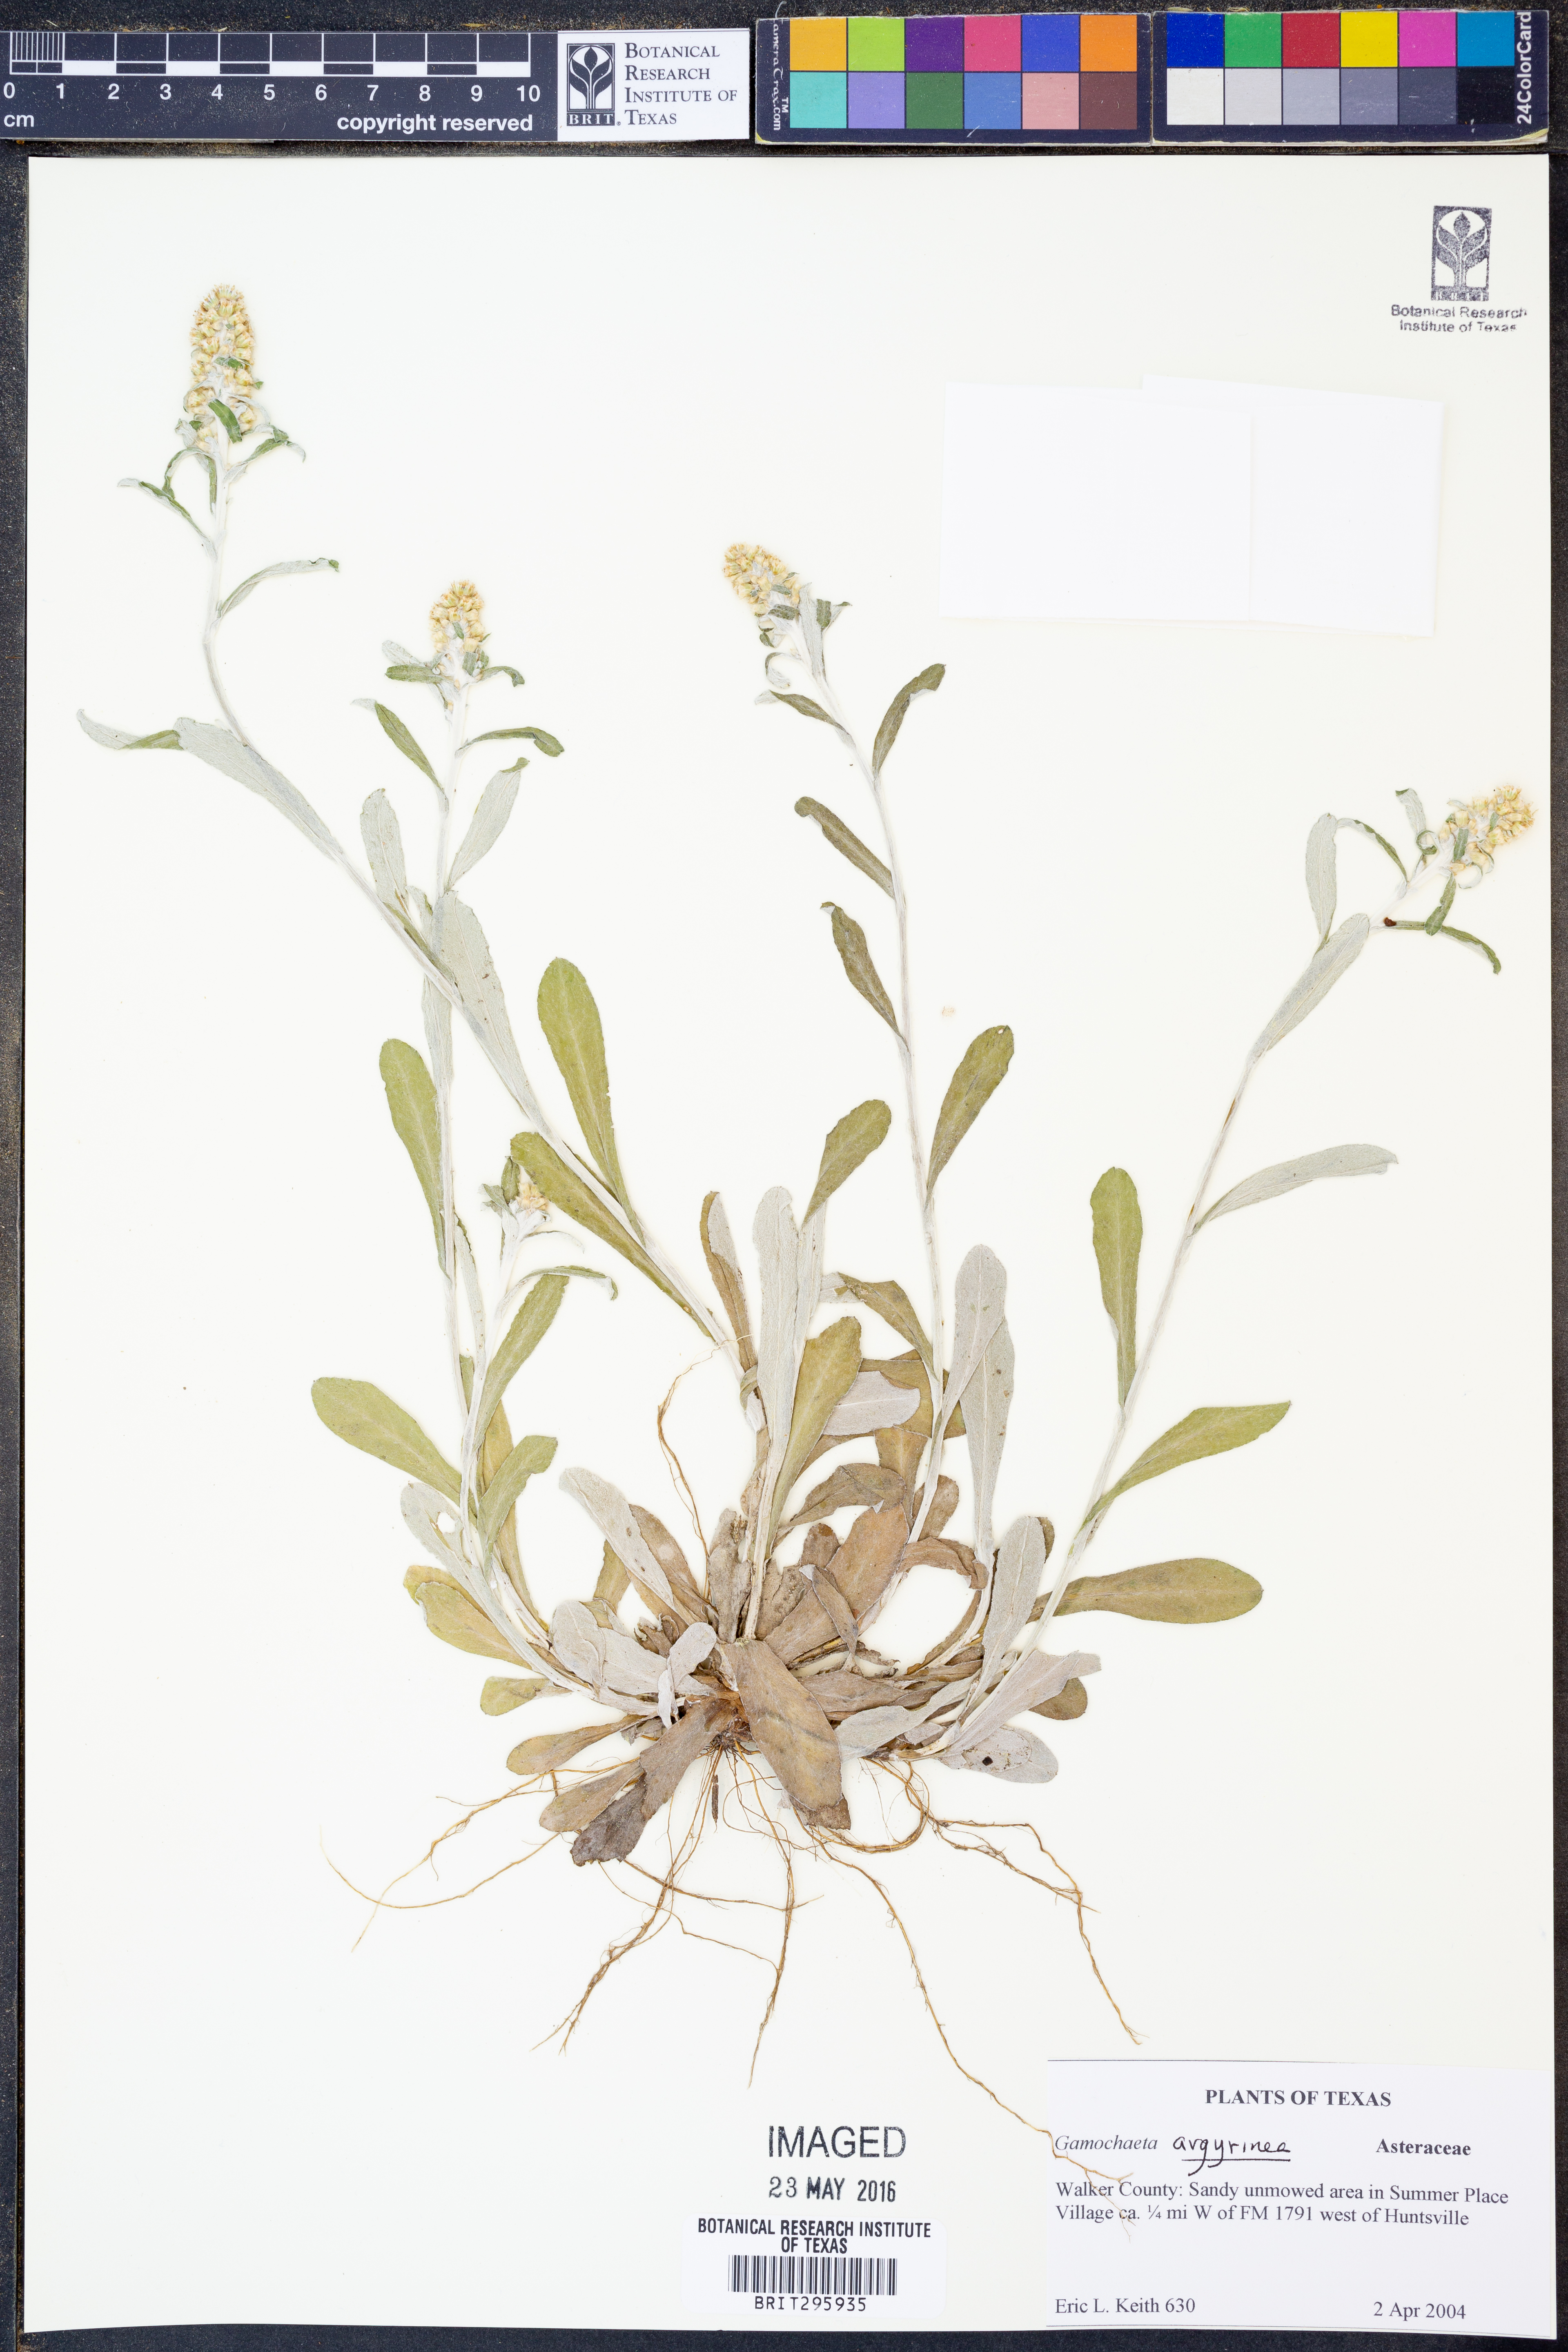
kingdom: Plantae
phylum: Tracheophyta
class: Magnoliopsida
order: Asterales
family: Asteraceae
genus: Gamochaeta
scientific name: Gamochaeta argyrinea
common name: Silvery cudweed
